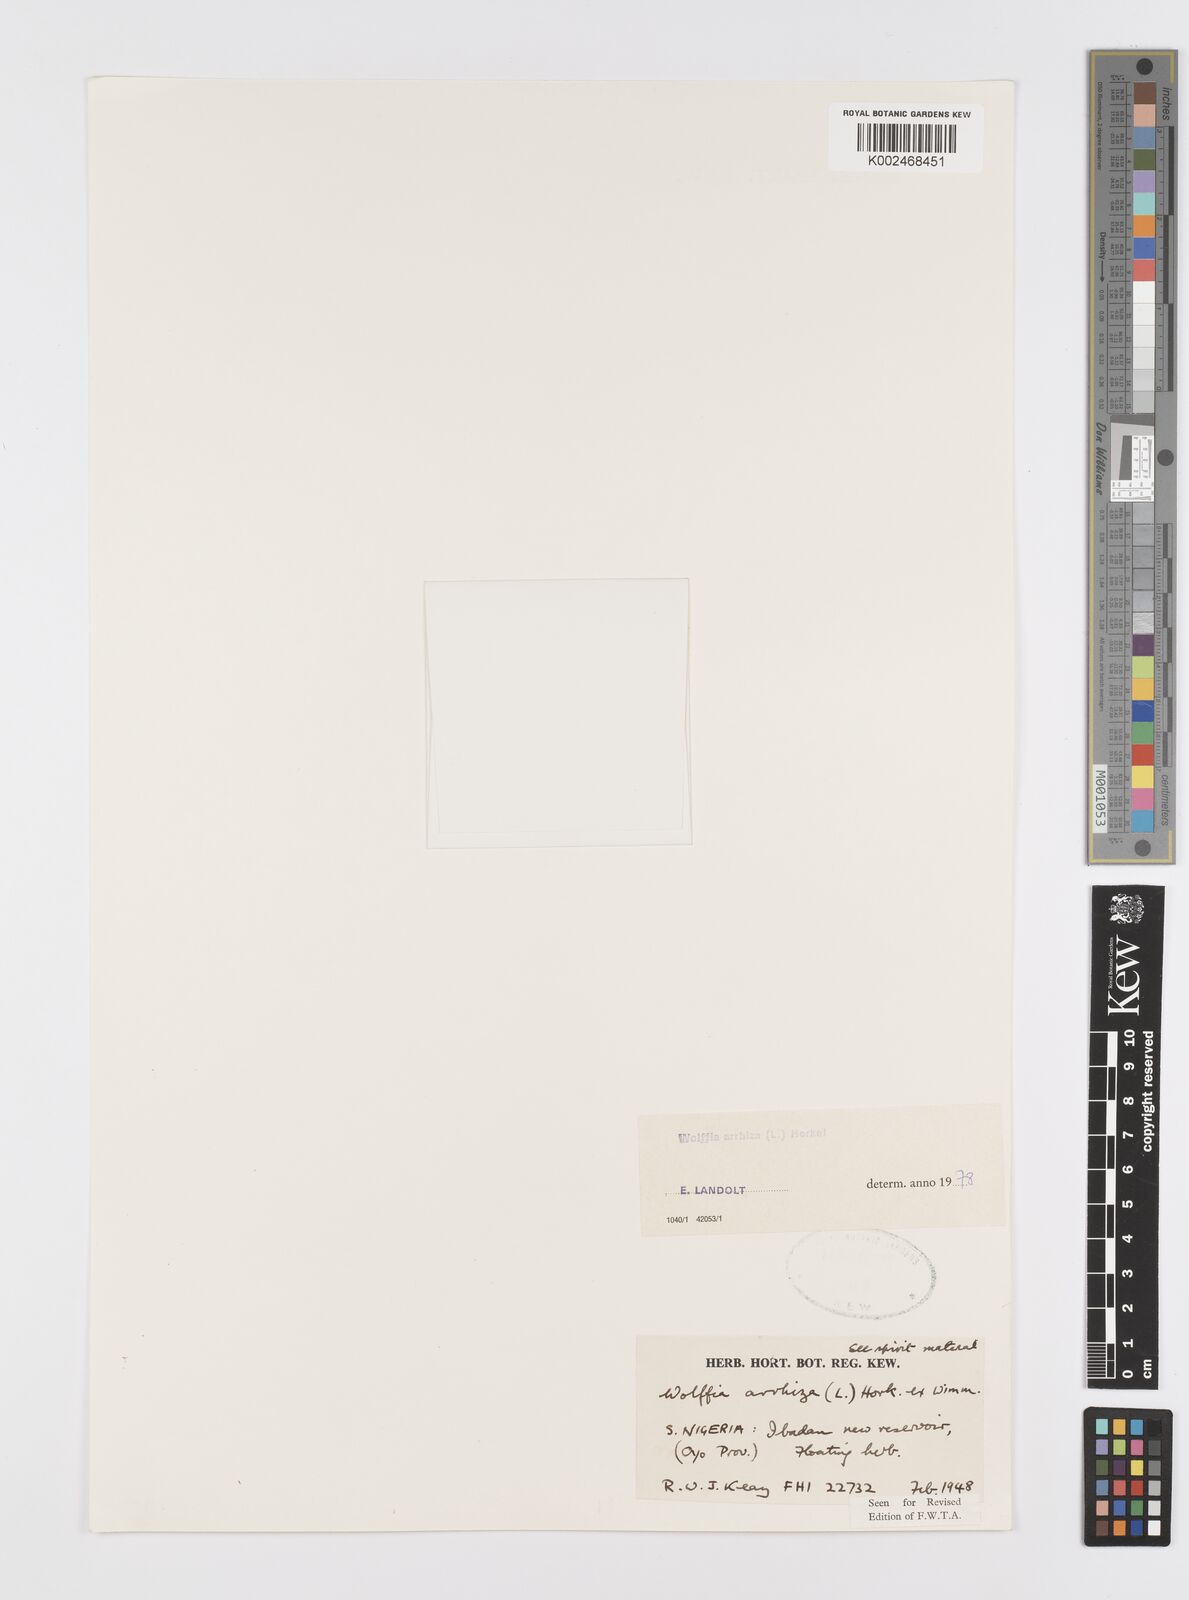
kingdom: Plantae
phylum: Tracheophyta
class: Liliopsida
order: Alismatales
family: Araceae
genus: Wolffia
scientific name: Wolffia arrhiza
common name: Rootless duckweed
